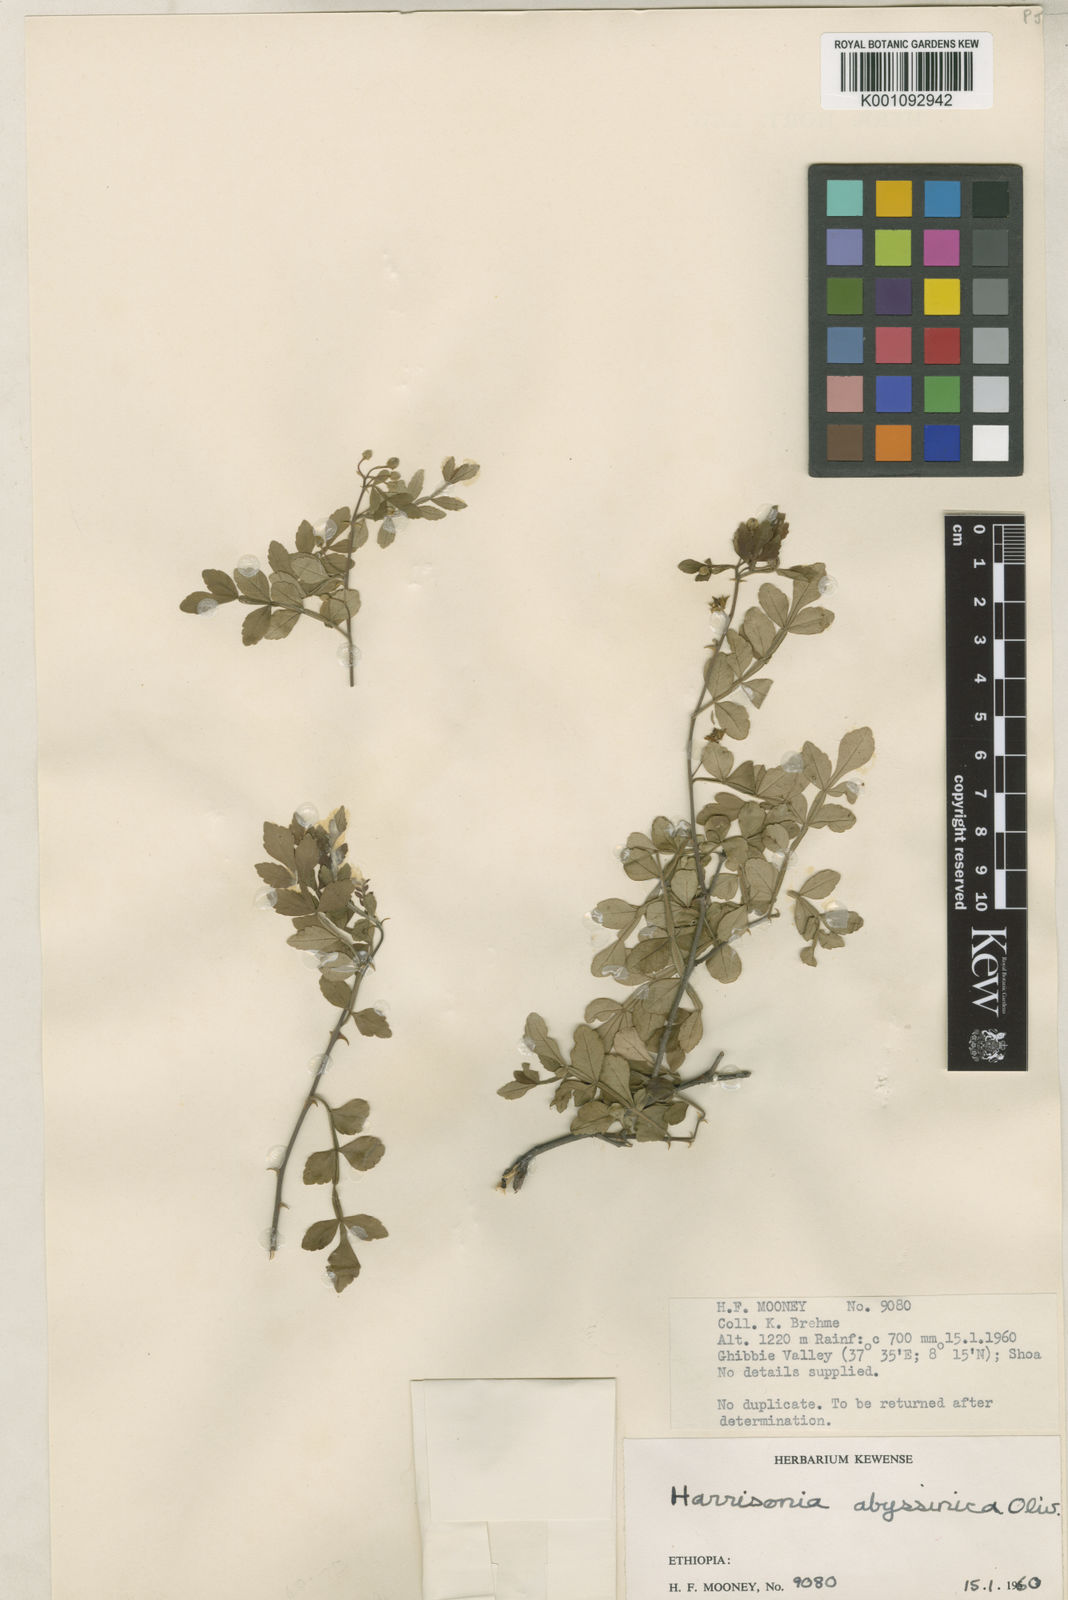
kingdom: Plantae
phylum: Tracheophyta
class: Magnoliopsida
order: Sapindales
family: Rutaceae
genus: Harrisonia
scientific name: Harrisonia abyssinica
